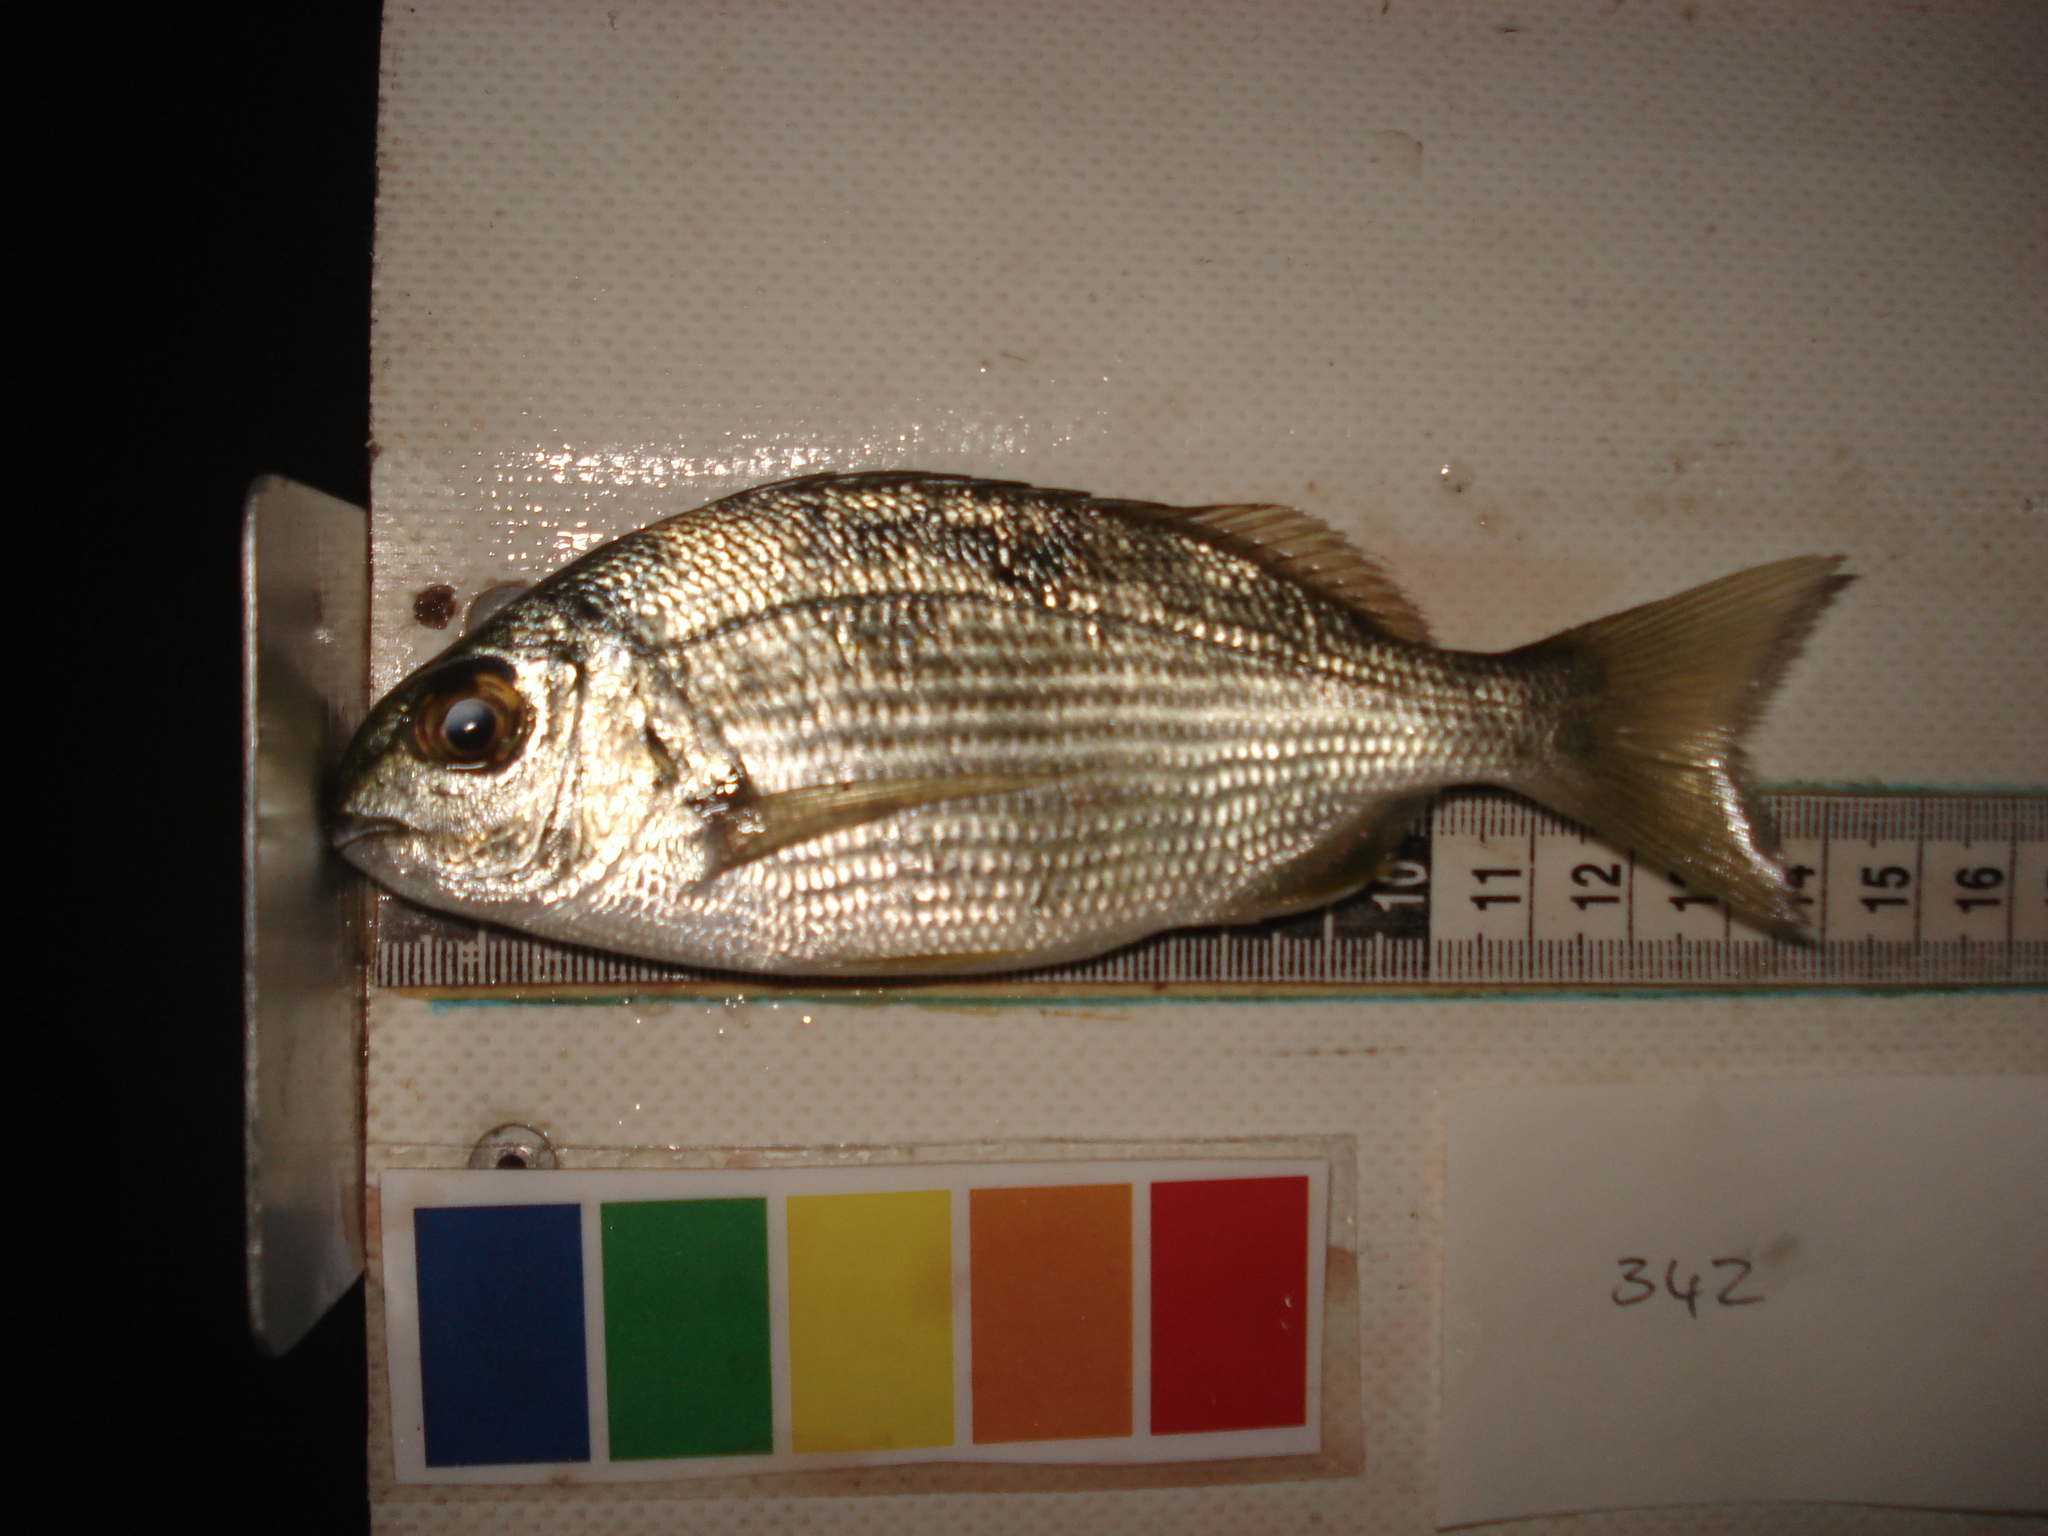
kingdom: Animalia
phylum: Chordata
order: Perciformes
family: Sparidae
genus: Crenidens
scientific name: Crenidens crenidens
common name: Karenteen seabream
